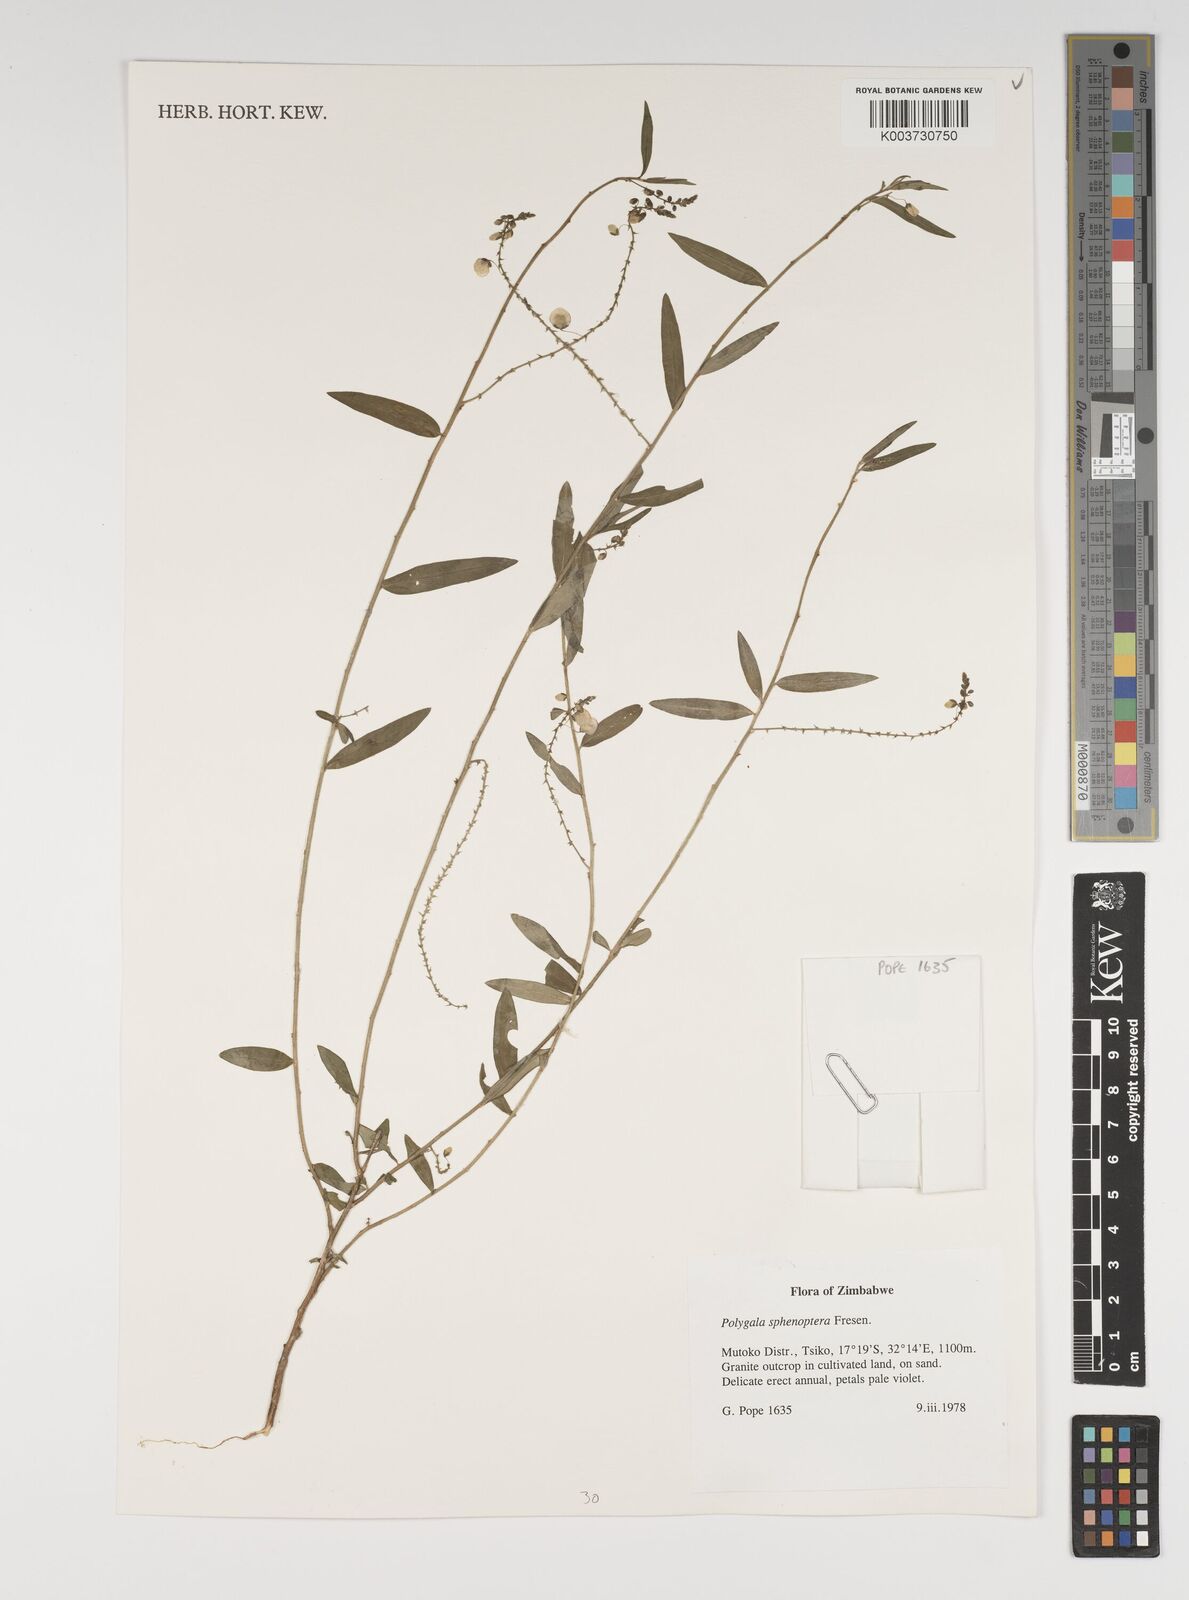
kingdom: Plantae
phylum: Tracheophyta
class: Magnoliopsida
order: Fabales
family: Polygalaceae
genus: Polygala
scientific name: Polygala sphenoptera
